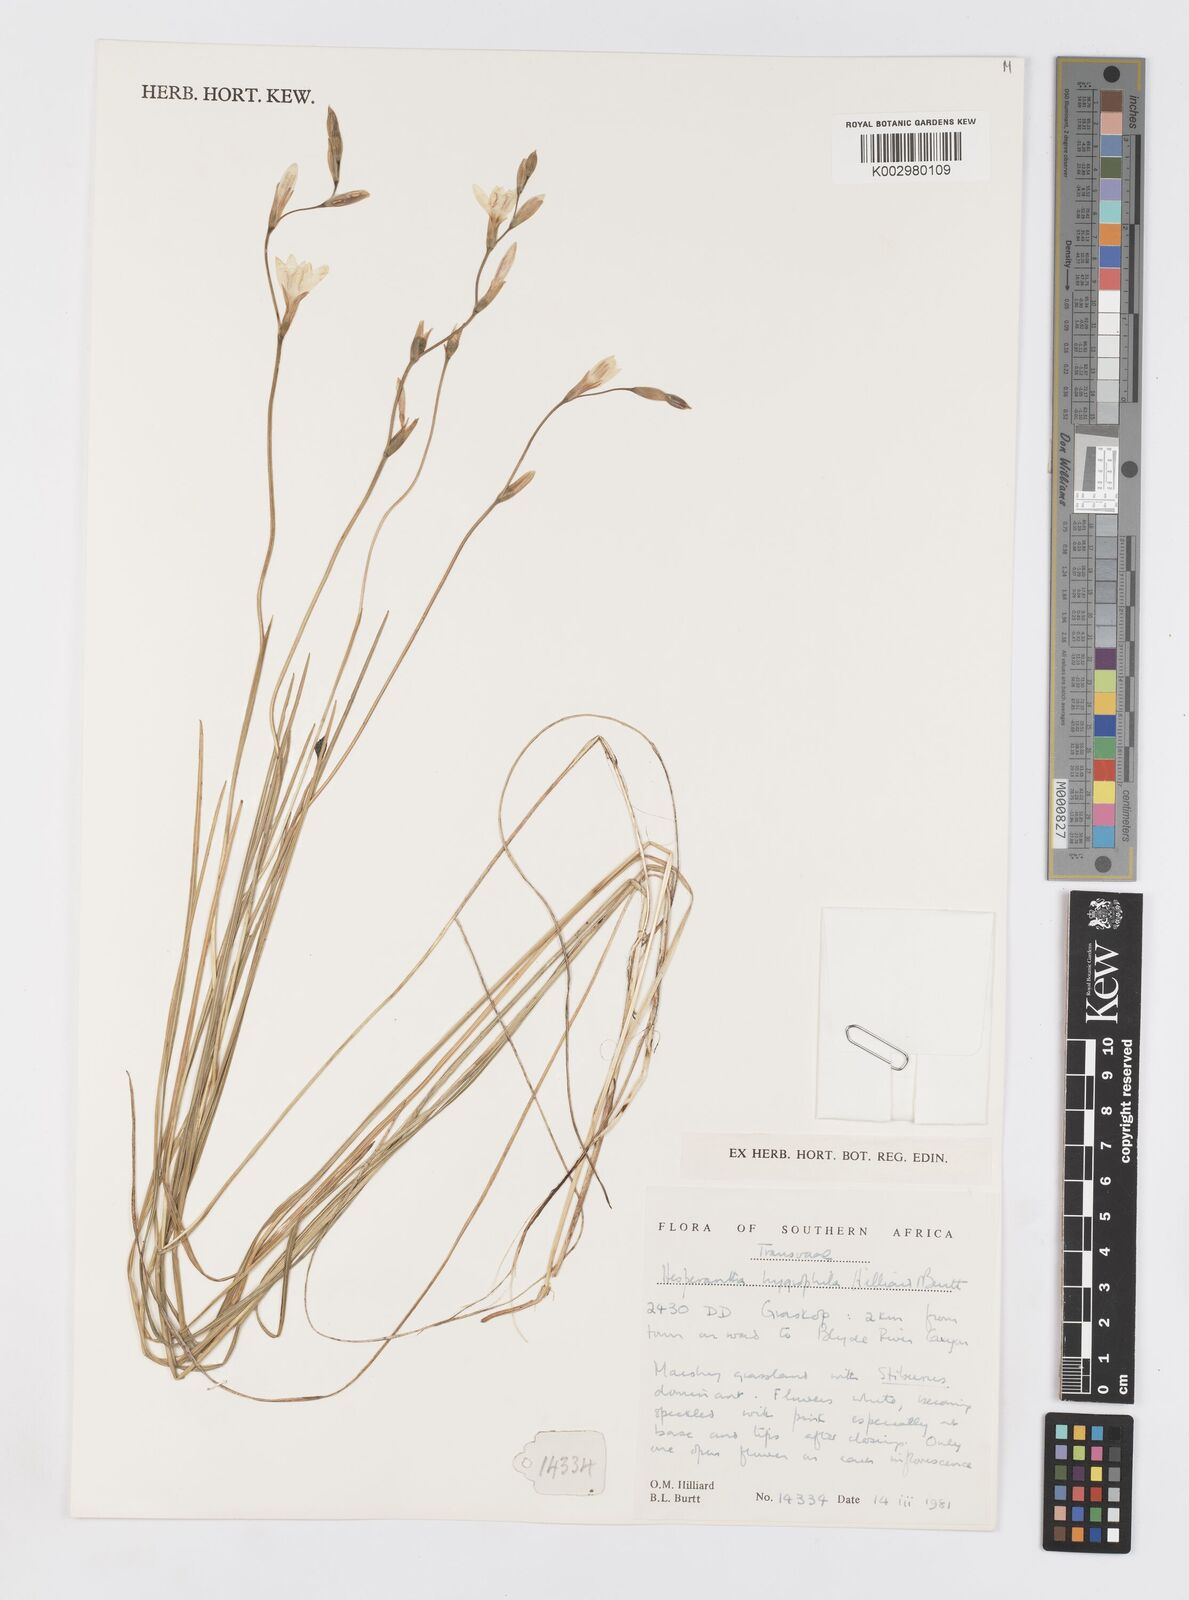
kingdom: Plantae
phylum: Tracheophyta
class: Liliopsida
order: Asparagales
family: Iridaceae
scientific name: Iridaceae
